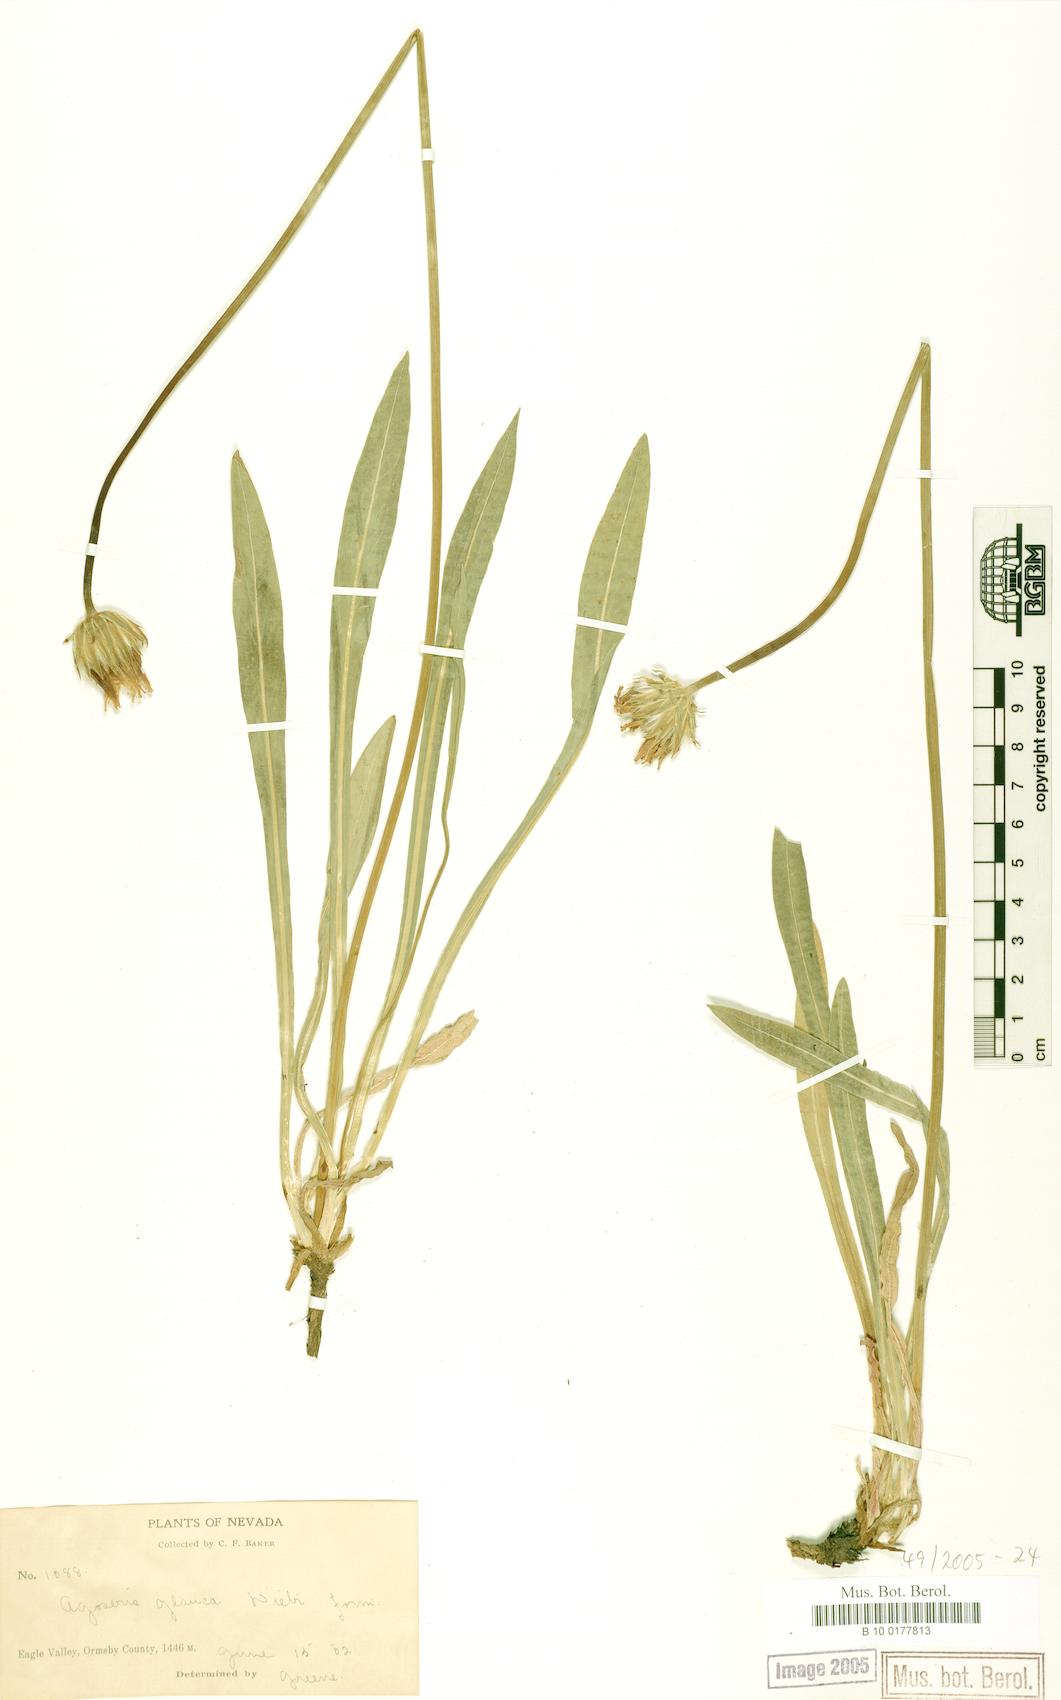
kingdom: Plantae
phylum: Tracheophyta
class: Magnoliopsida
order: Asterales
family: Asteraceae
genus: Agoseris
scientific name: Agoseris glauca
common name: Prairie agoseris
